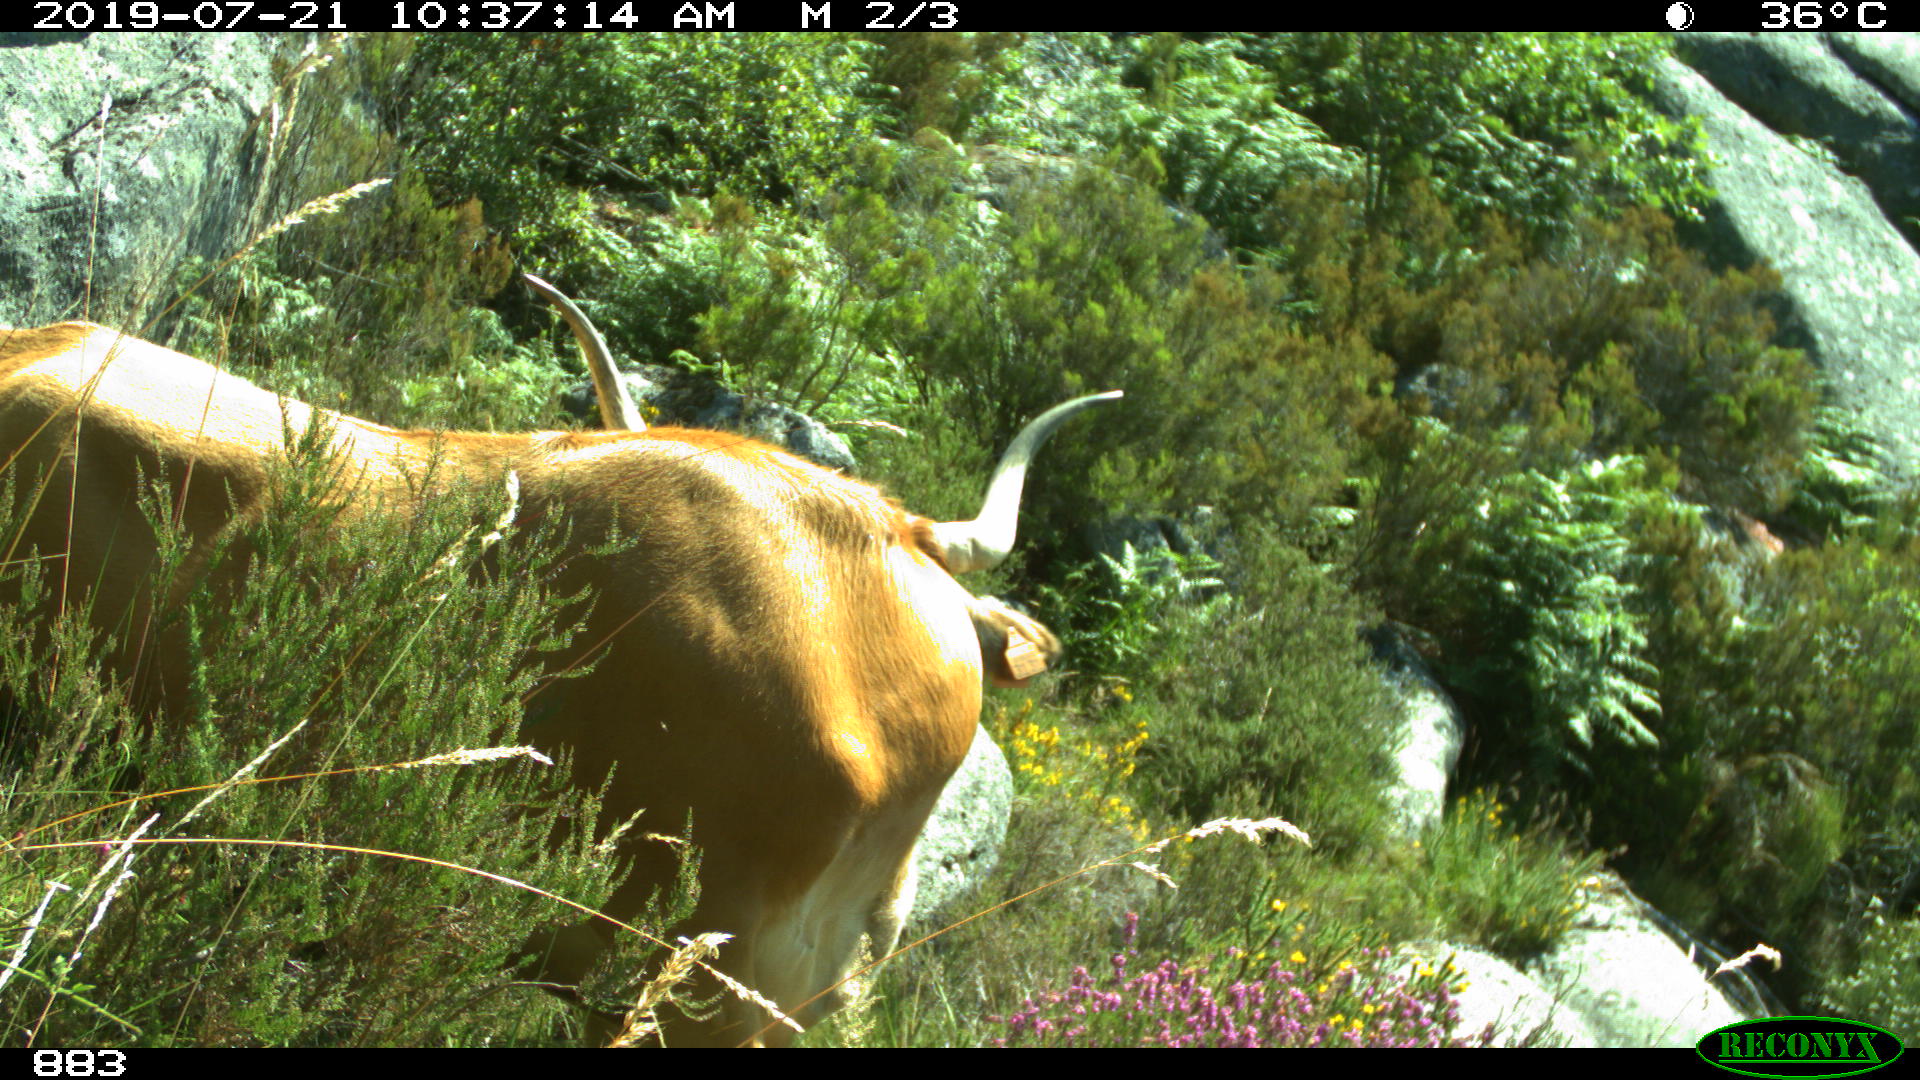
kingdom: Animalia
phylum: Chordata
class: Mammalia
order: Artiodactyla
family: Bovidae
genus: Bos
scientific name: Bos taurus
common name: Domesticated cattle
